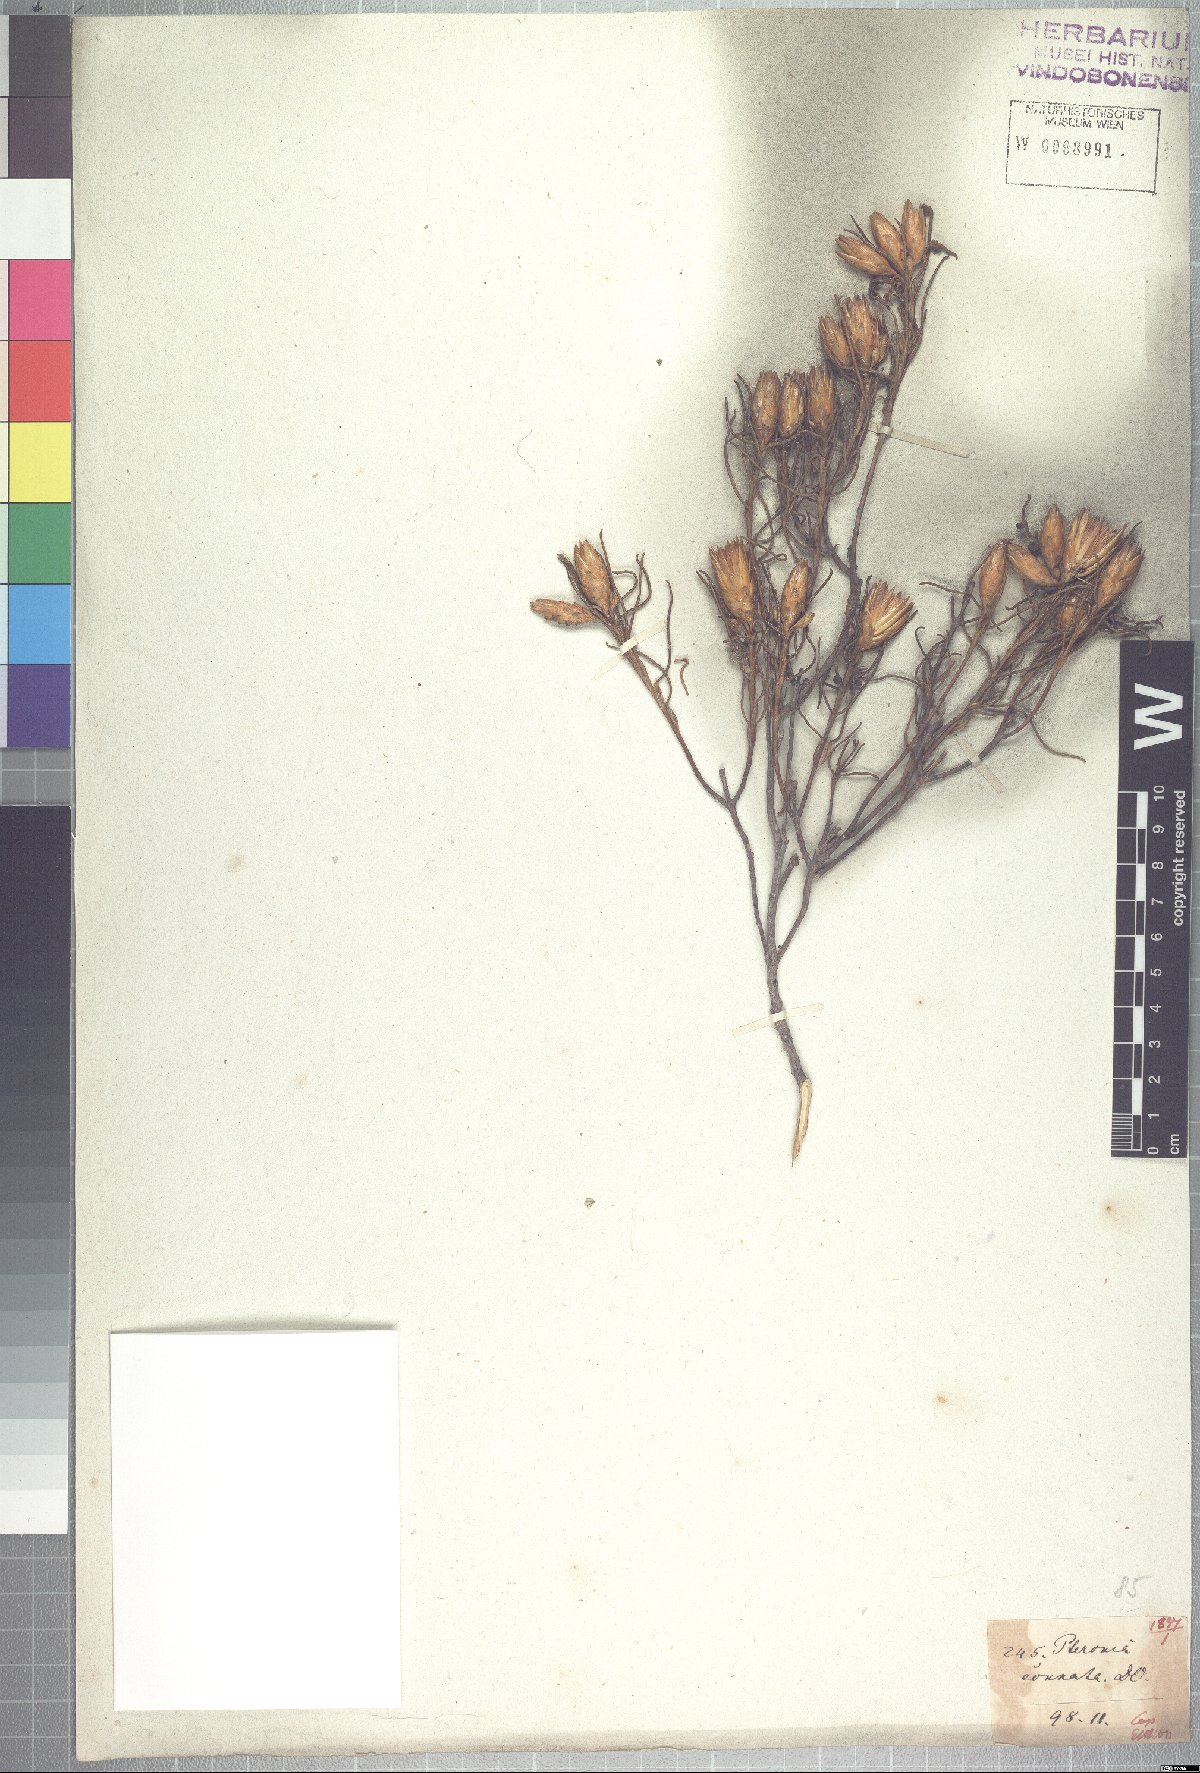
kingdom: Plantae
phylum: Tracheophyta
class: Magnoliopsida
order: Asterales
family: Asteraceae
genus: Pteronia
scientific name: Pteronia flexicaulis
